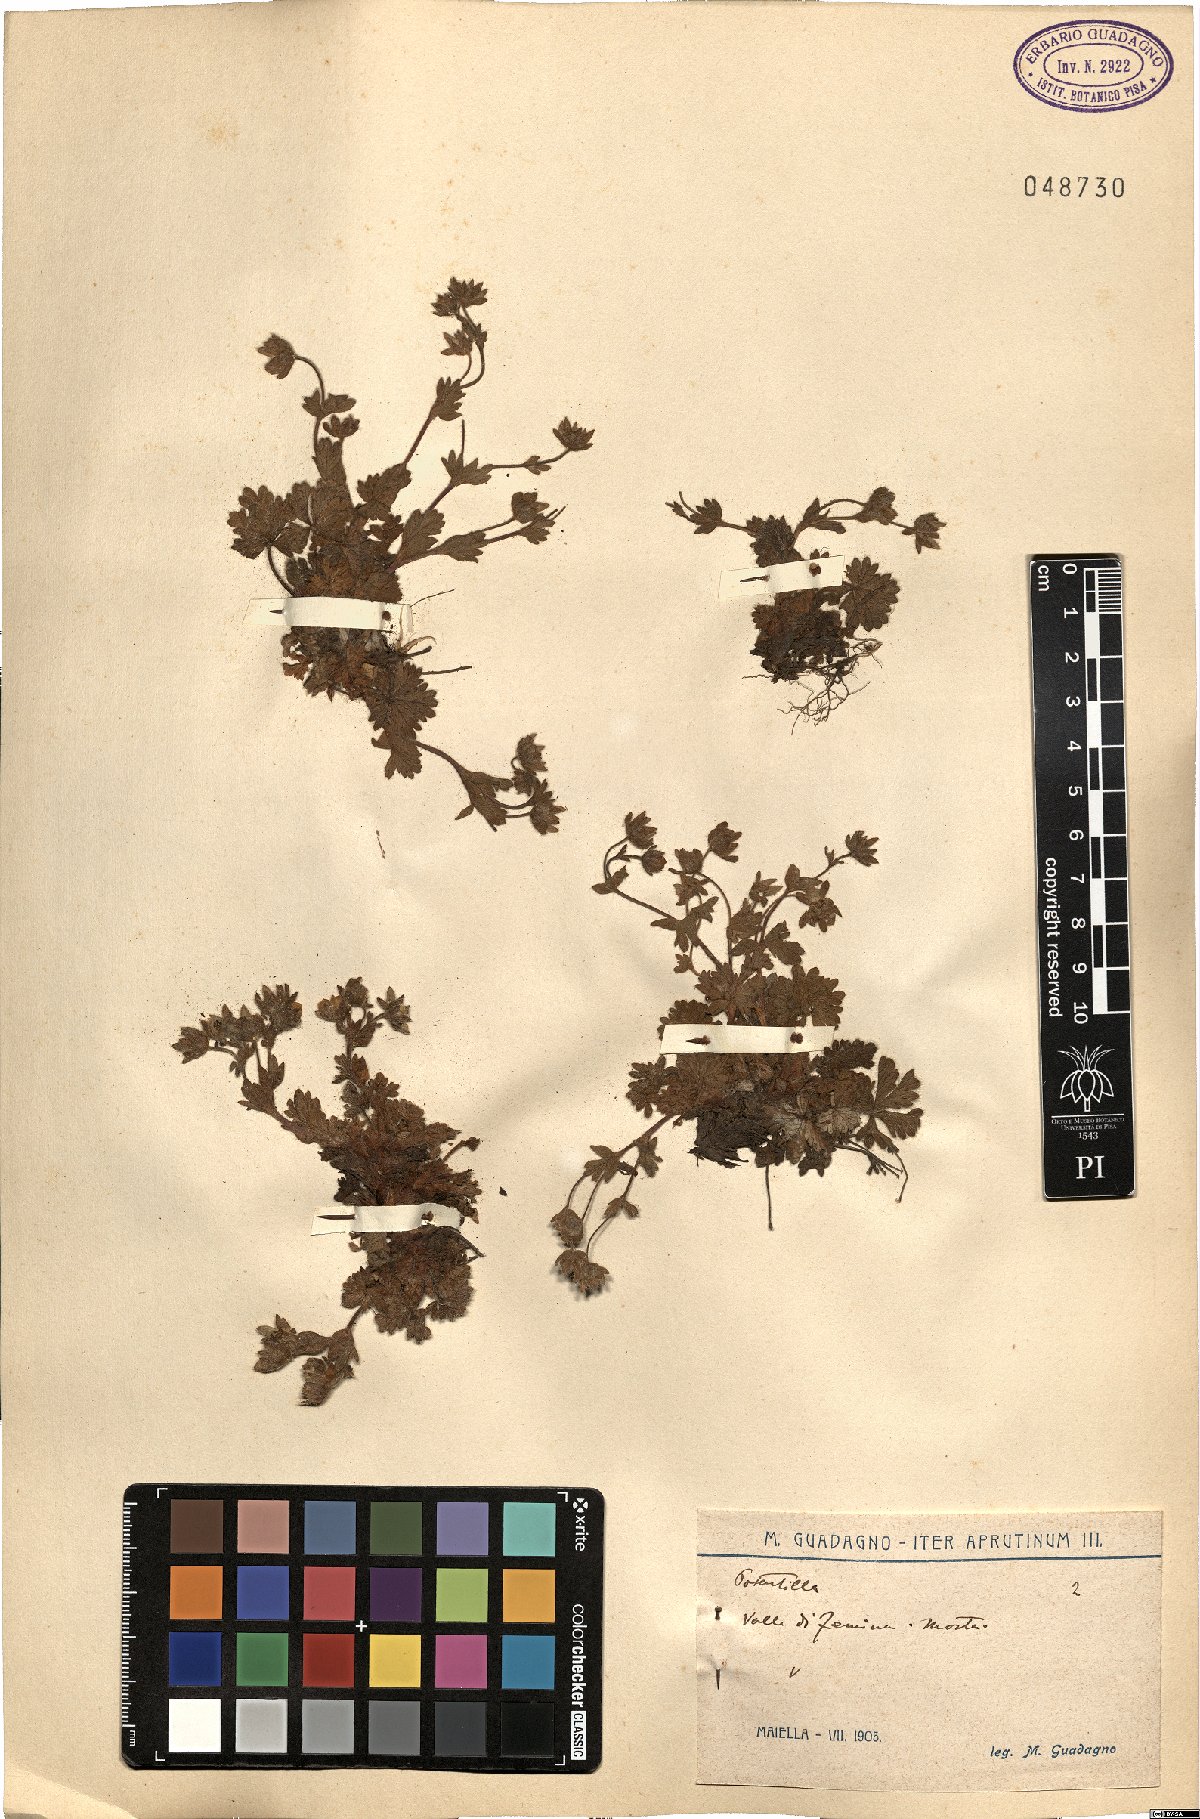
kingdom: Plantae
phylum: Tracheophyta
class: Magnoliopsida
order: Rosales
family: Rosaceae
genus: Potentilla
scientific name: Potentilla
